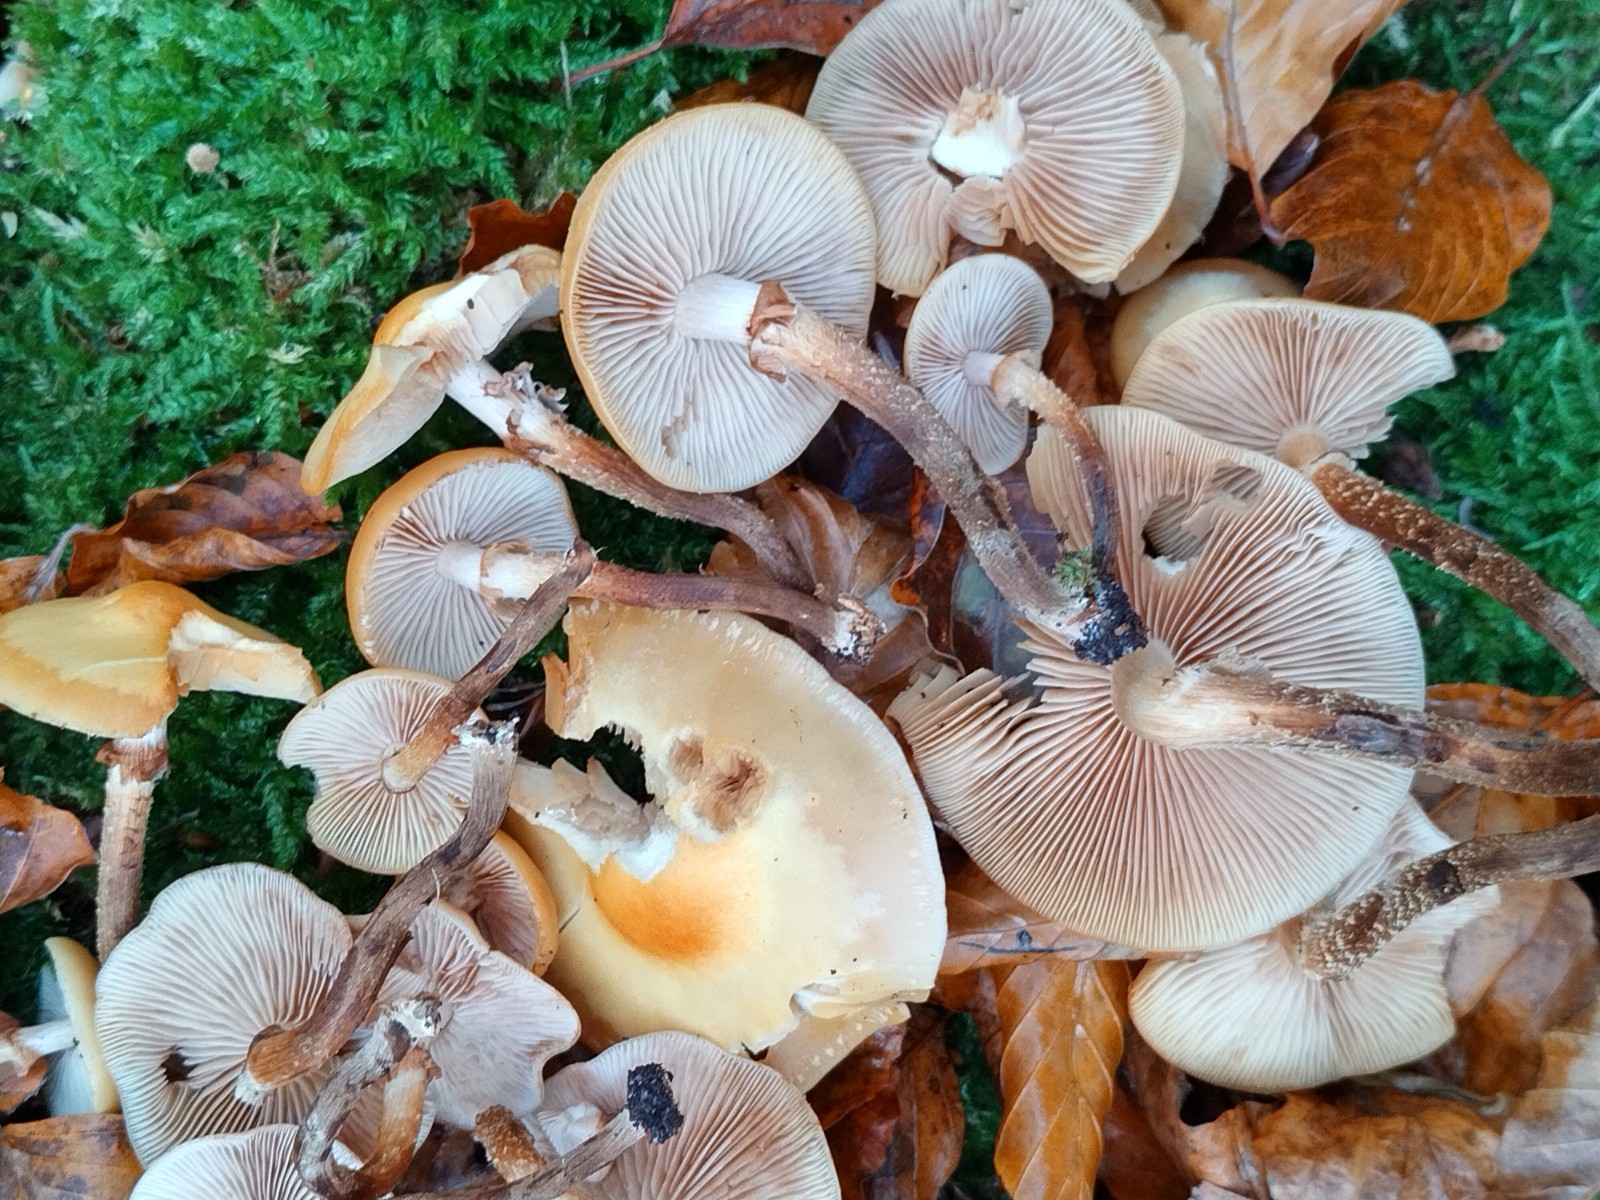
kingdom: Fungi
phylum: Basidiomycota
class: Agaricomycetes
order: Agaricales
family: Strophariaceae
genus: Kuehneromyces
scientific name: Kuehneromyces mutabilis
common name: foranderlig skælhat
